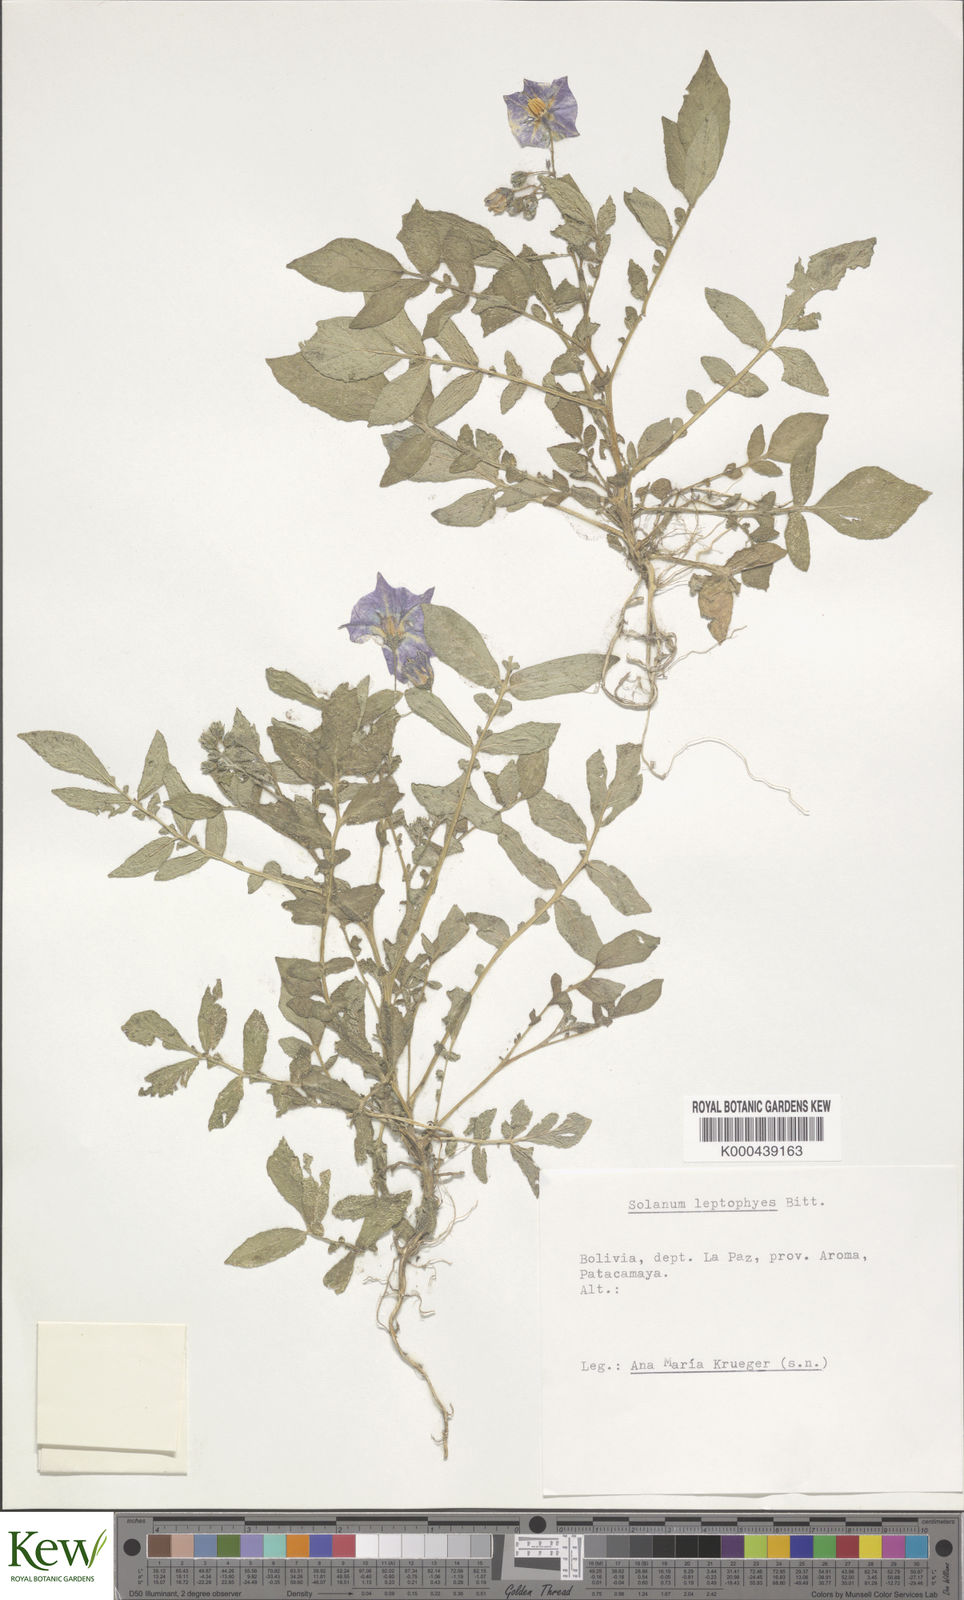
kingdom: Plantae
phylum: Tracheophyta
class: Magnoliopsida
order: Solanales
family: Solanaceae
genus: Solanum
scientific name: Solanum brevicaule
